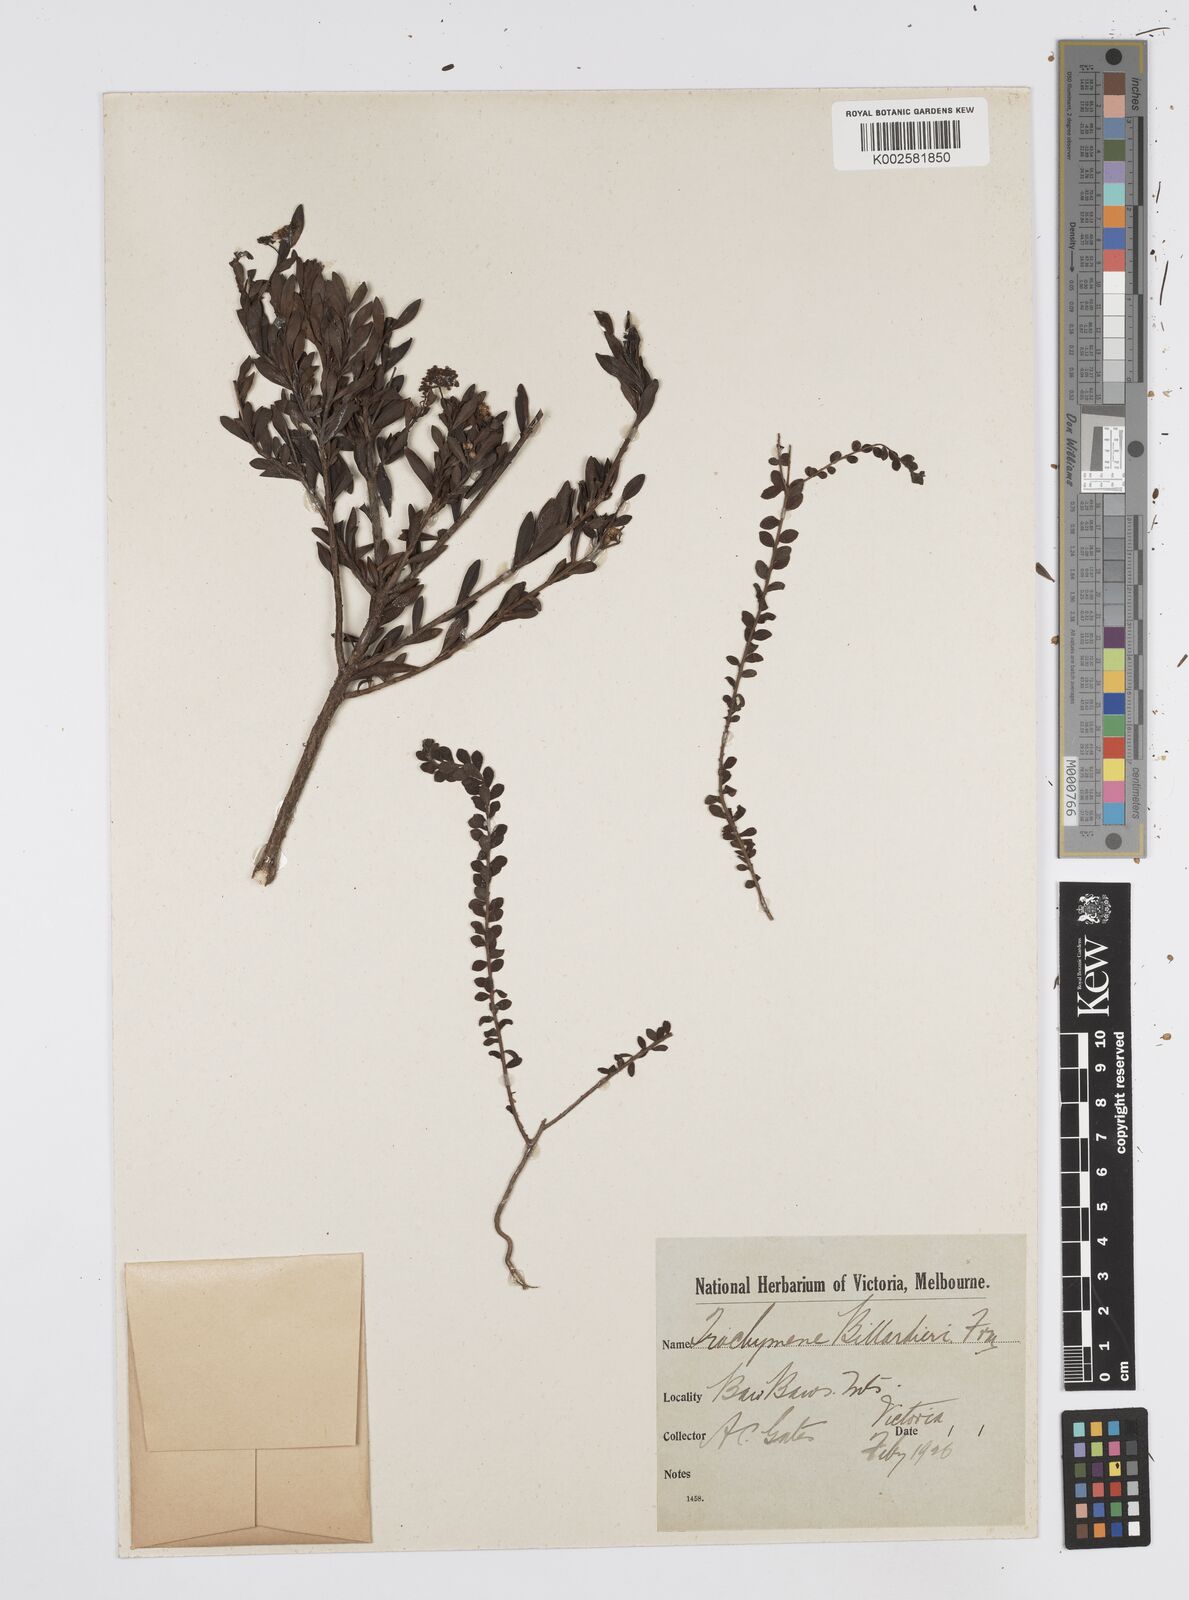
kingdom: Plantae
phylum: Tracheophyta
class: Magnoliopsida
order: Apiales
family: Apiaceae
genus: Platysace
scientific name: Platysace lanceolata
